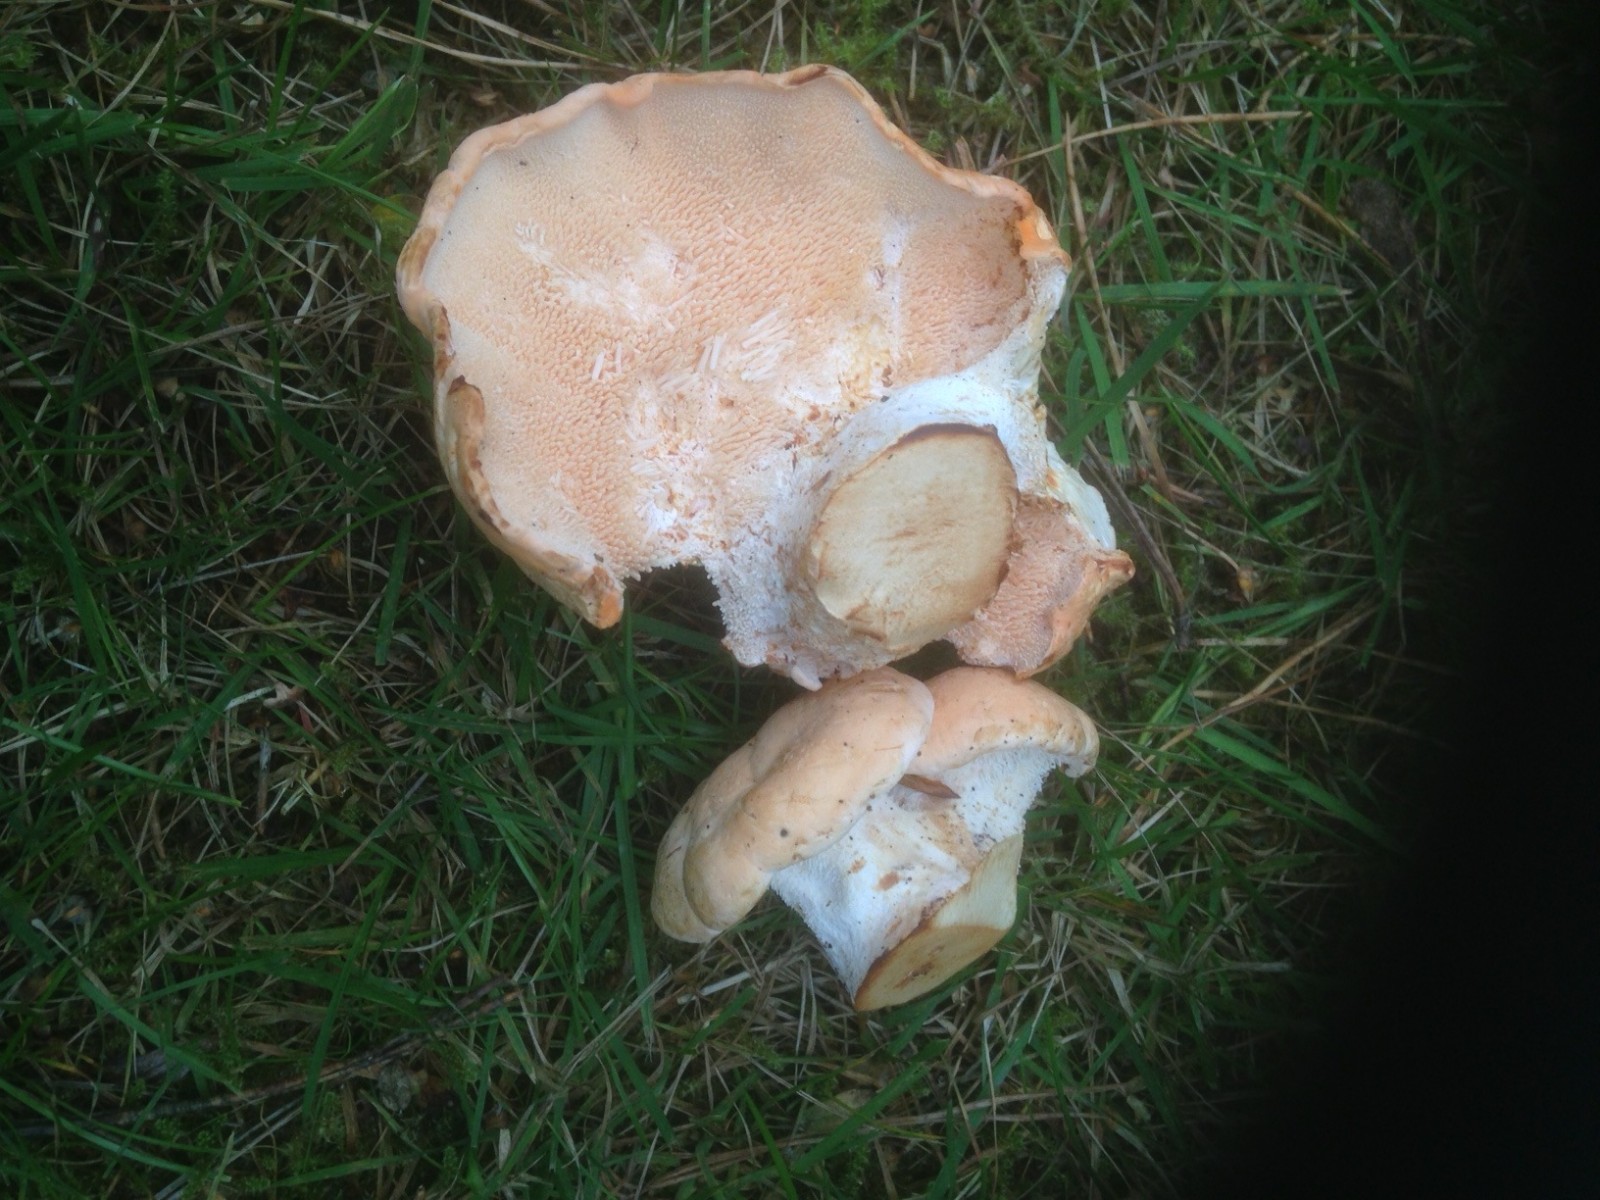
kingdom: Fungi
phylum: Basidiomycota
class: Agaricomycetes
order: Cantharellales
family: Hydnaceae
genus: Hydnum
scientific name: Hydnum repandum
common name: almindelig pigsvamp
